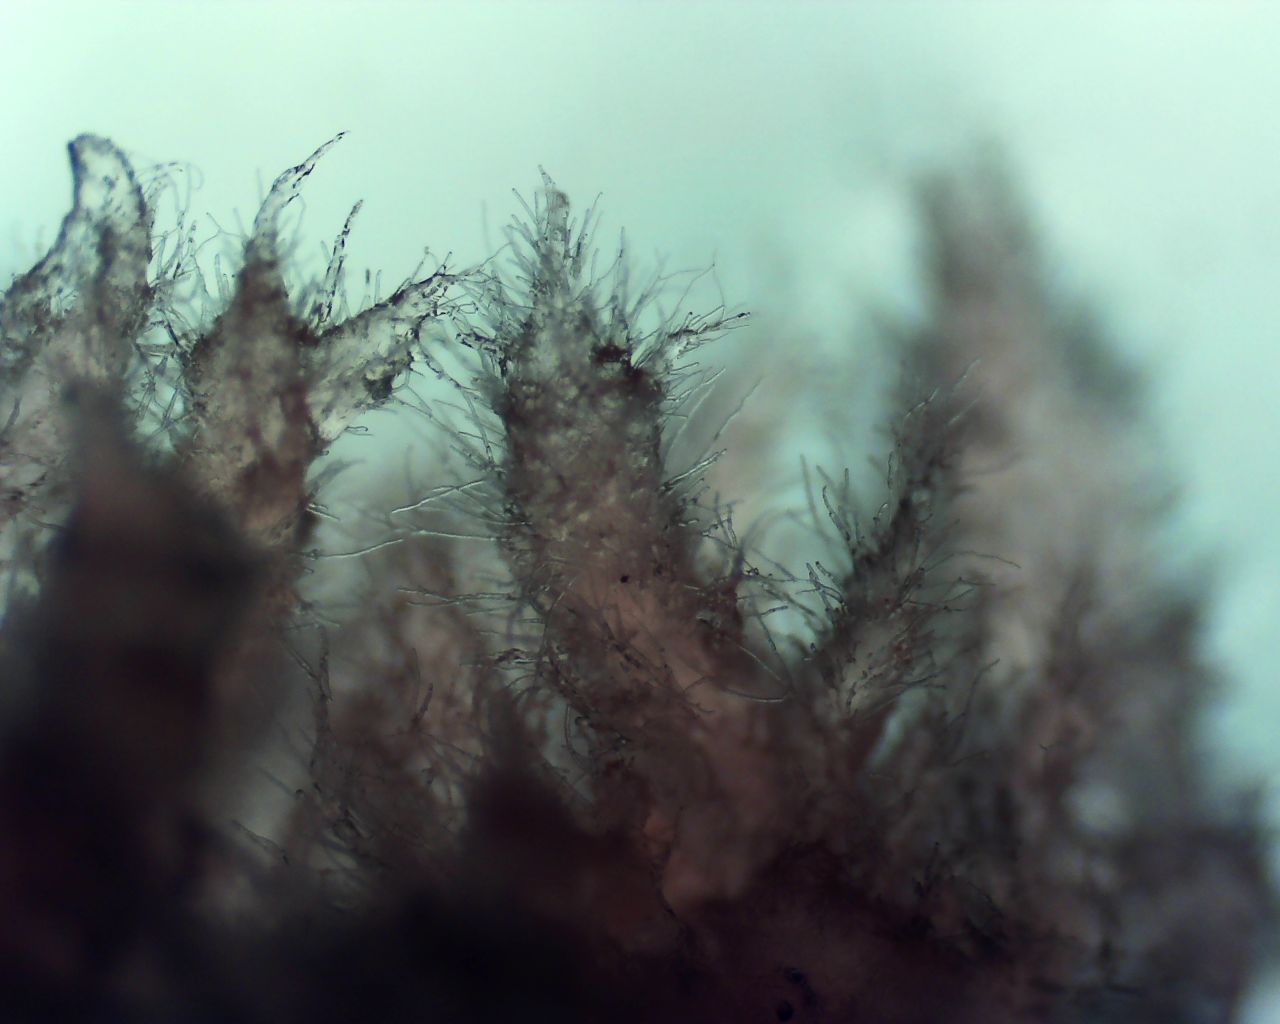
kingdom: Fungi
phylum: Basidiomycota
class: Agaricomycetes
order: Corticiales
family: Corticiaceae
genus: Laetisaria
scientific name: Laetisaria
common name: rødtråd
